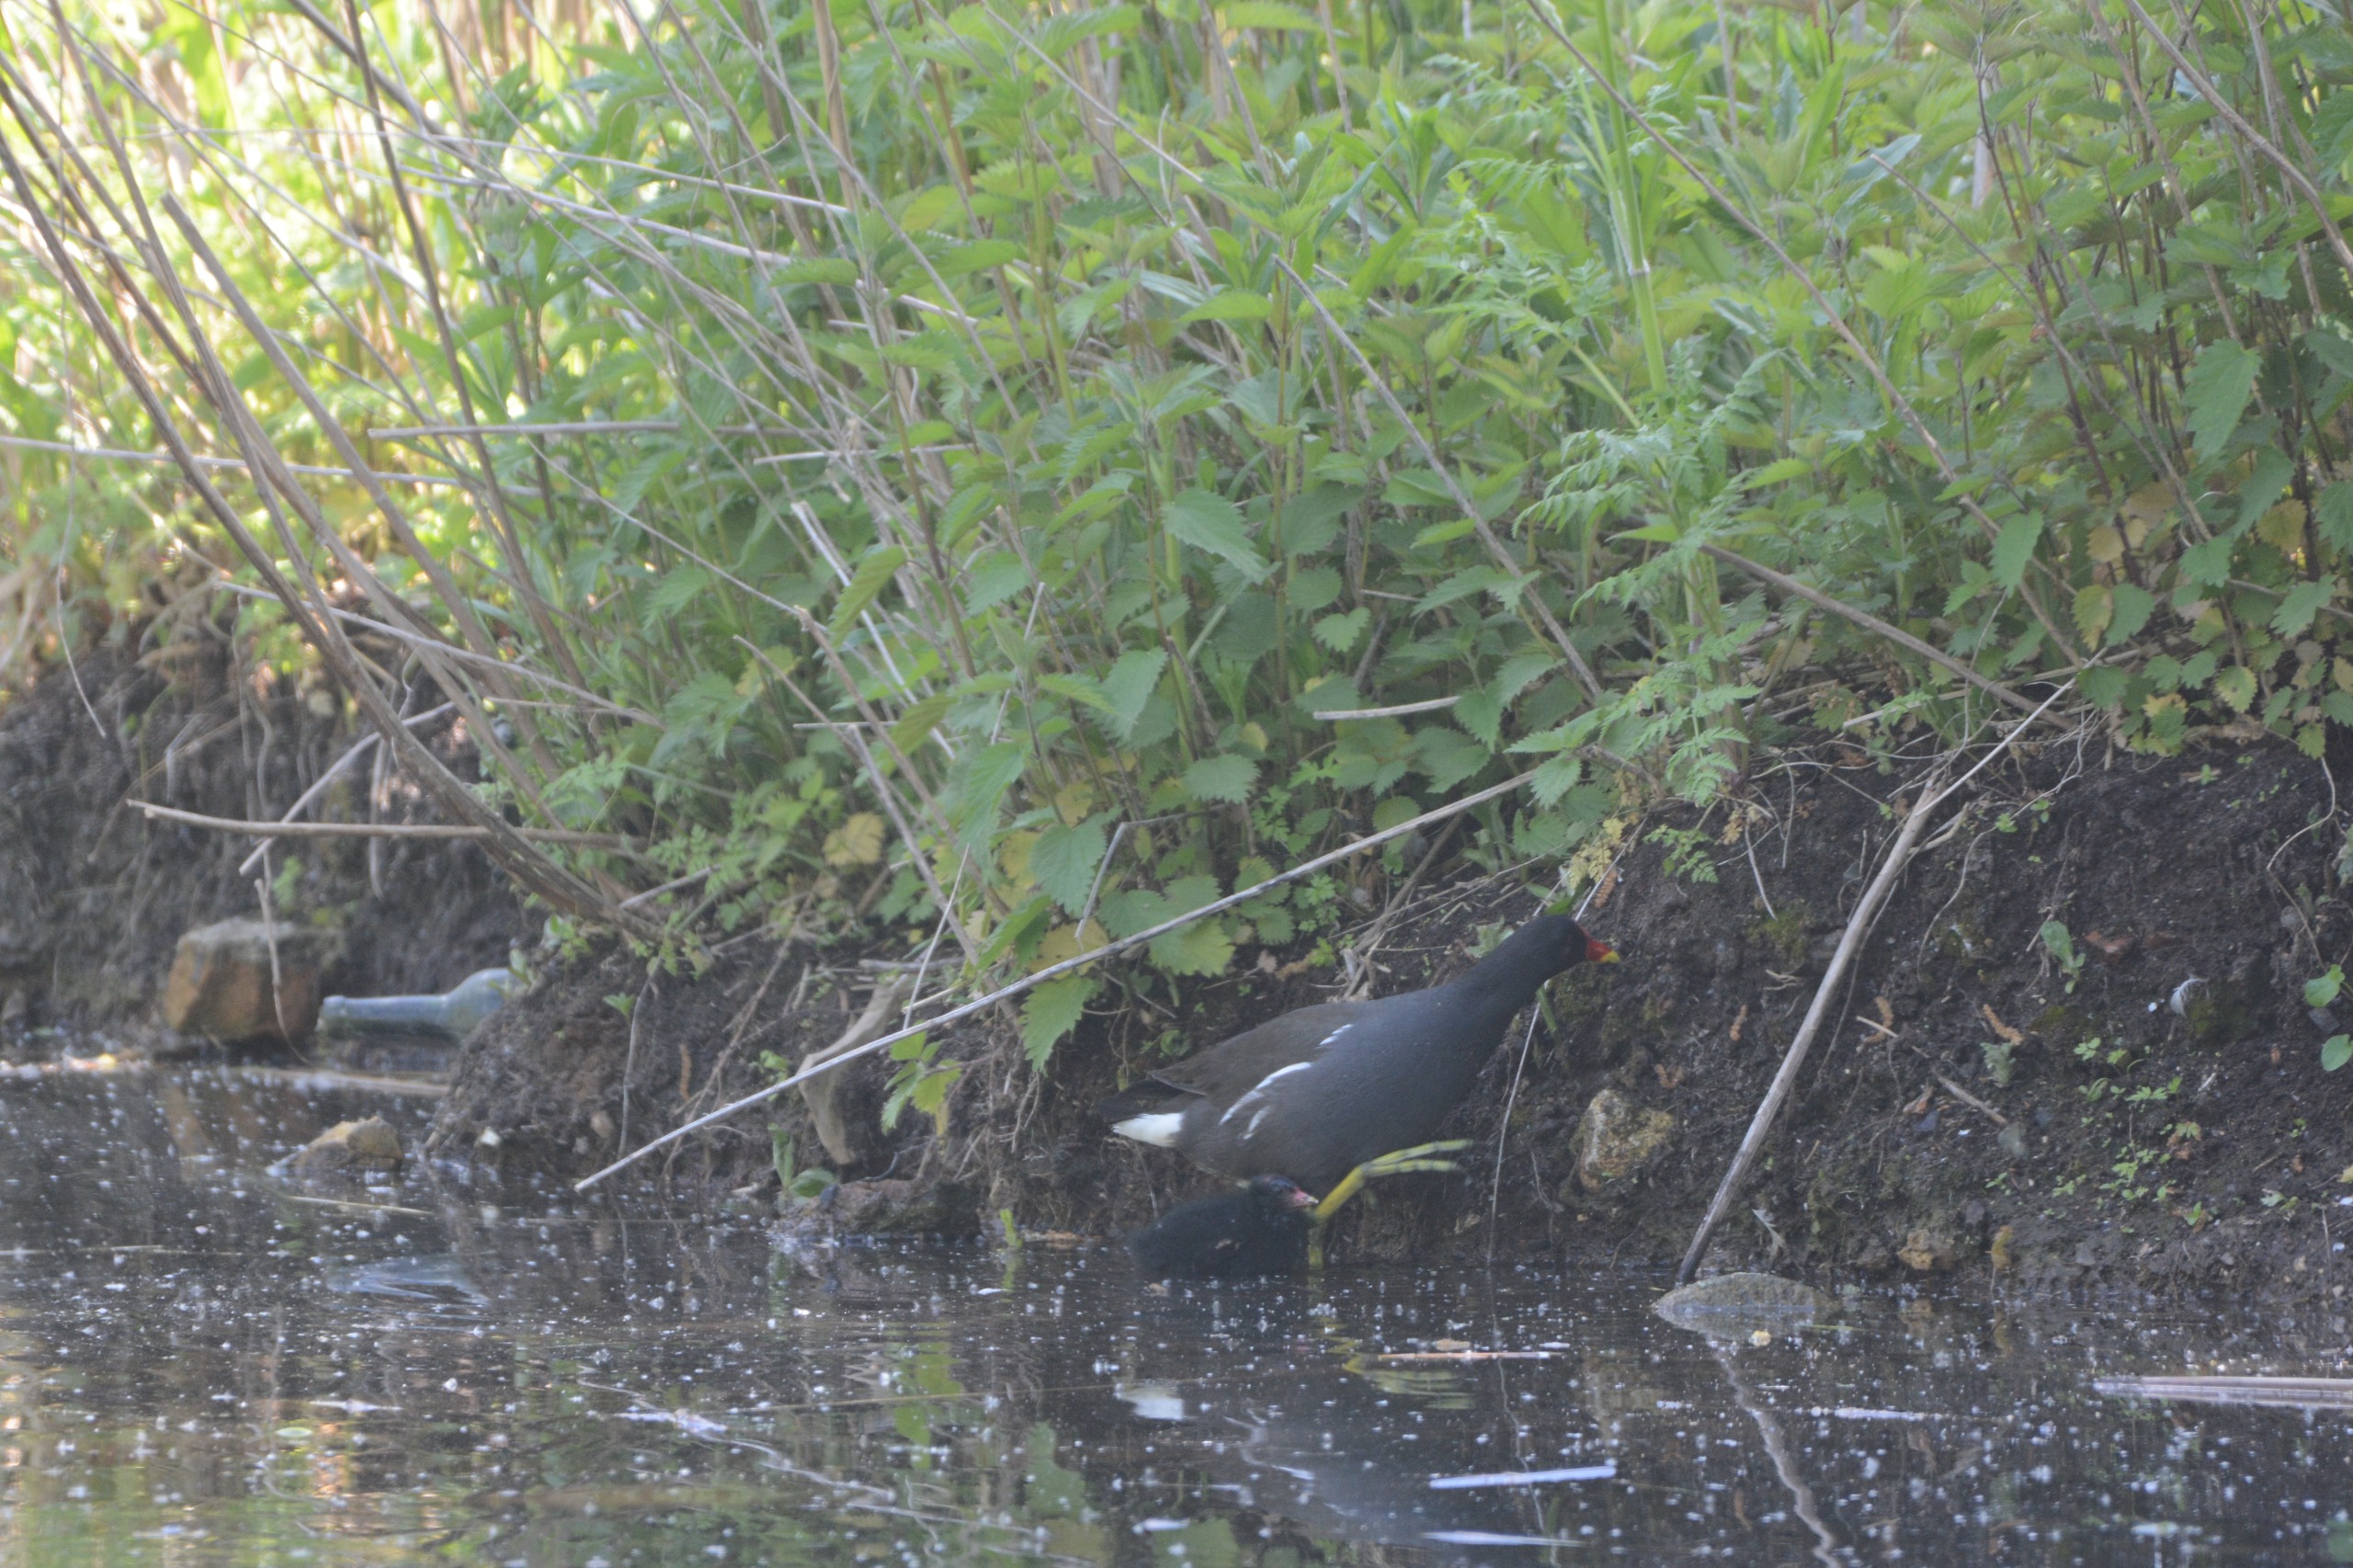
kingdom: Animalia
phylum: Chordata
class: Aves
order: Gruiformes
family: Rallidae
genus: Gallinula
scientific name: Gallinula chloropus
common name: Grønbenet rørhøne
